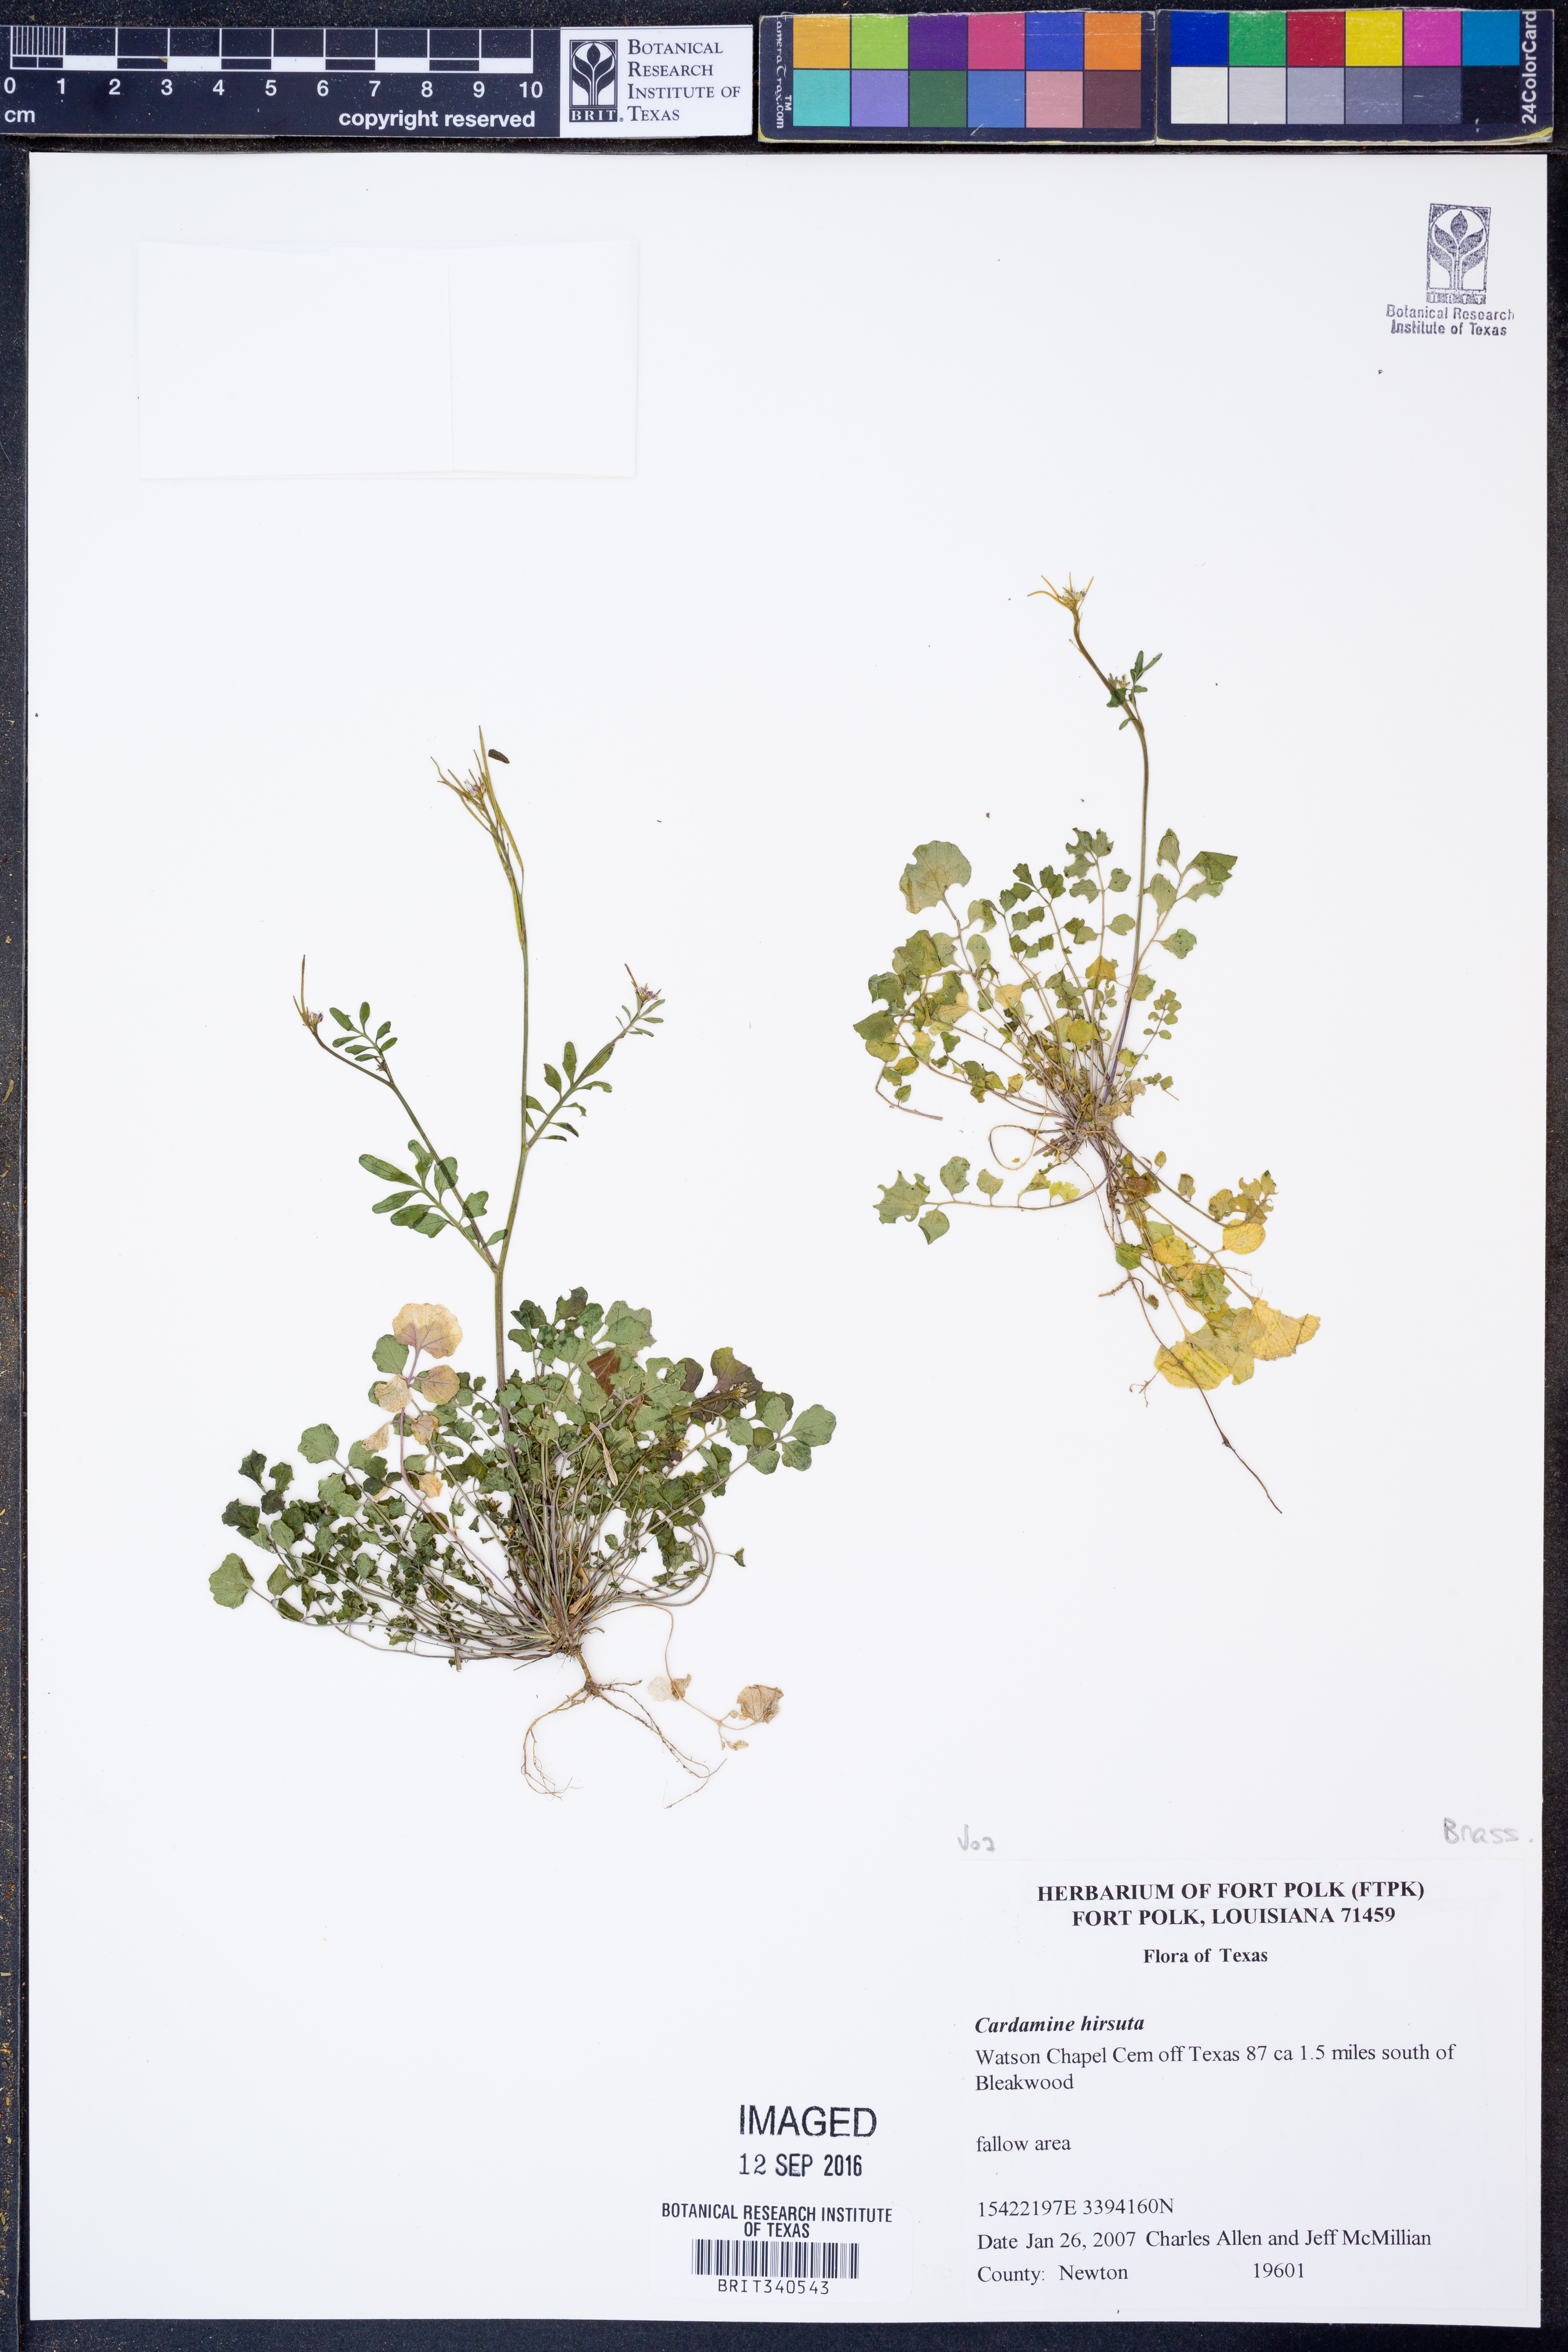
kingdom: Plantae
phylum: Tracheophyta
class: Magnoliopsida
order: Brassicales
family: Brassicaceae
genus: Cardamine
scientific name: Cardamine hirsuta
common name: Hairy bittercress
